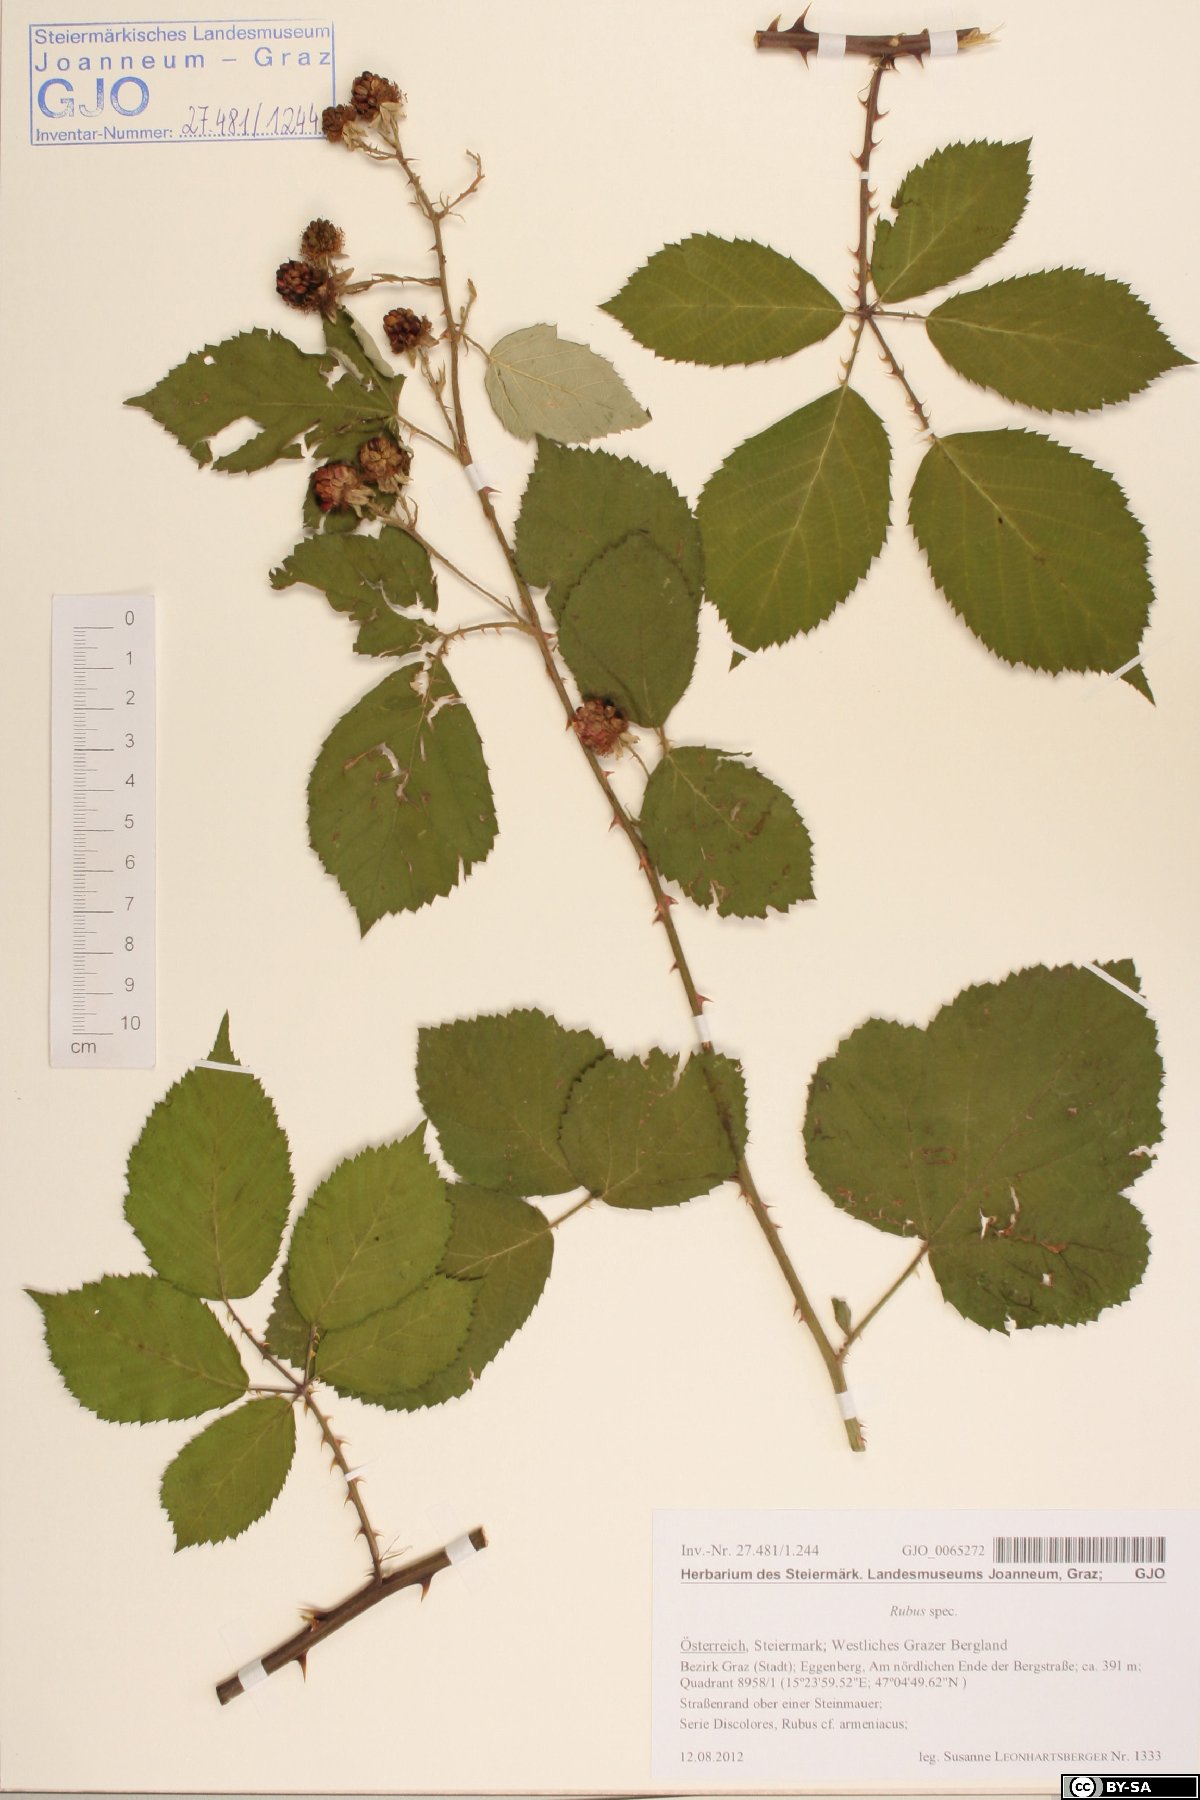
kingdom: Plantae
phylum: Tracheophyta
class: Magnoliopsida
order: Rosales
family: Rosaceae
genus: Rubus
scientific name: Rubus
